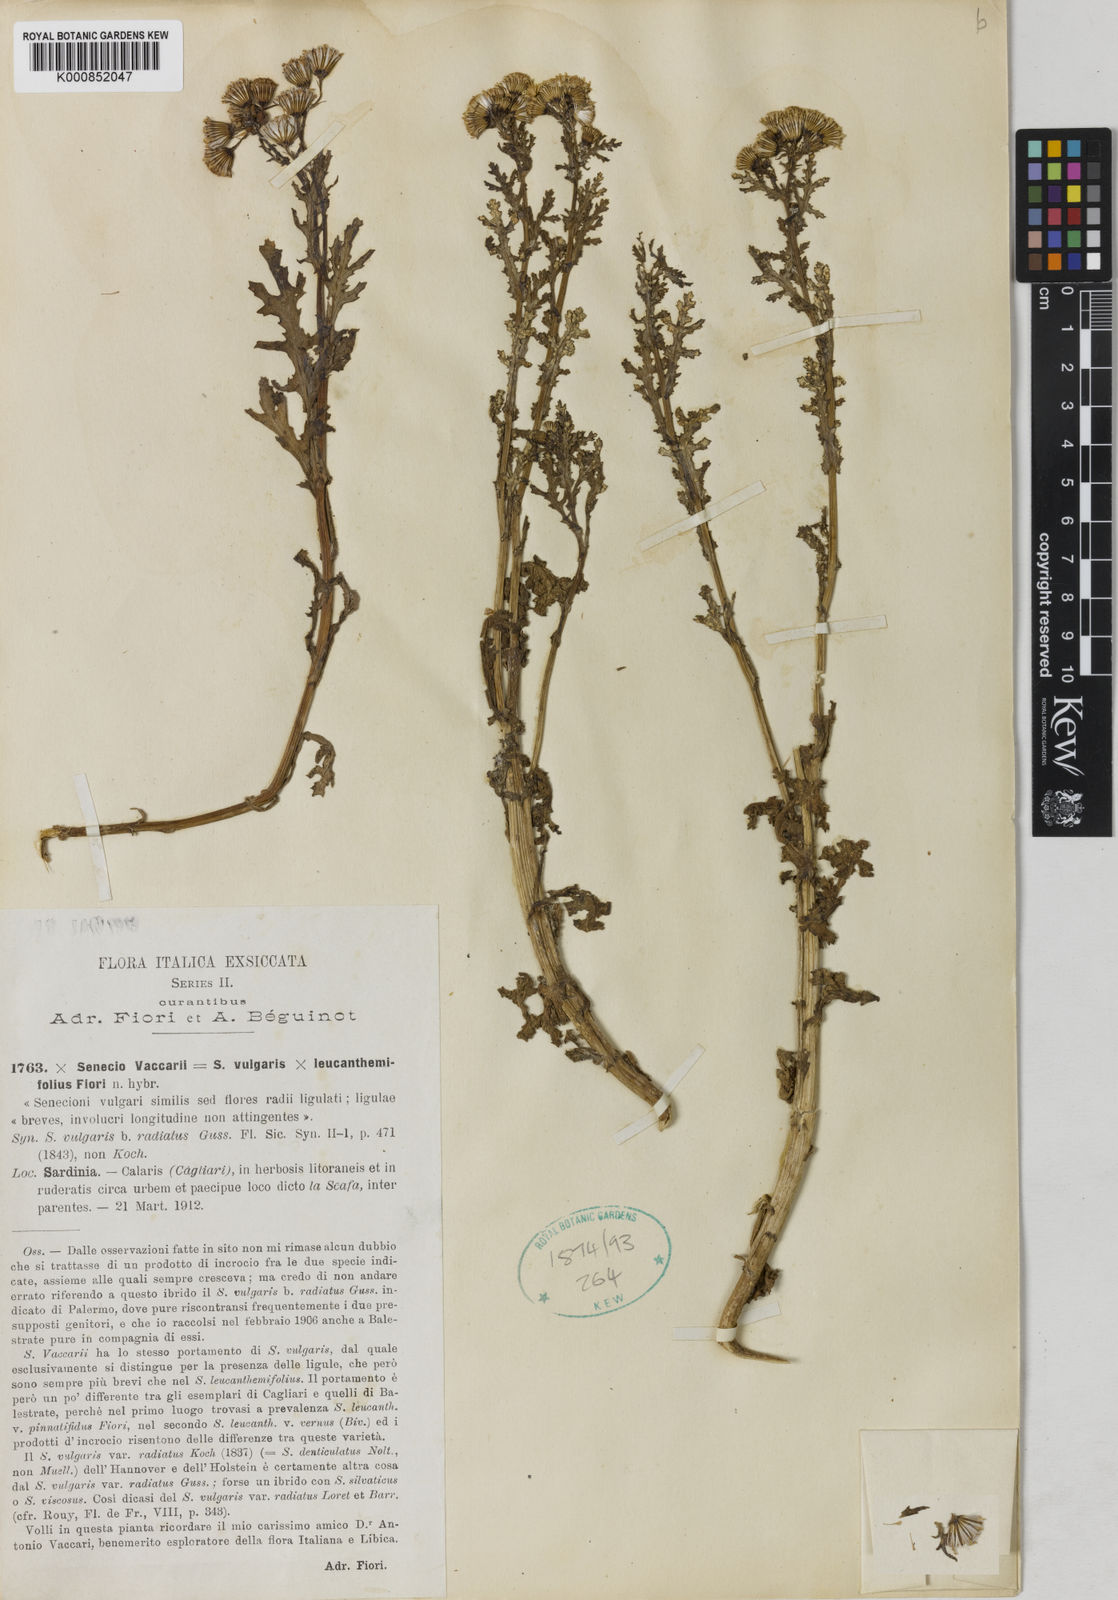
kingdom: Plantae
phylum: Tracheophyta
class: Magnoliopsida
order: Asterales
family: Asteraceae
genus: Senecio
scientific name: Senecio
